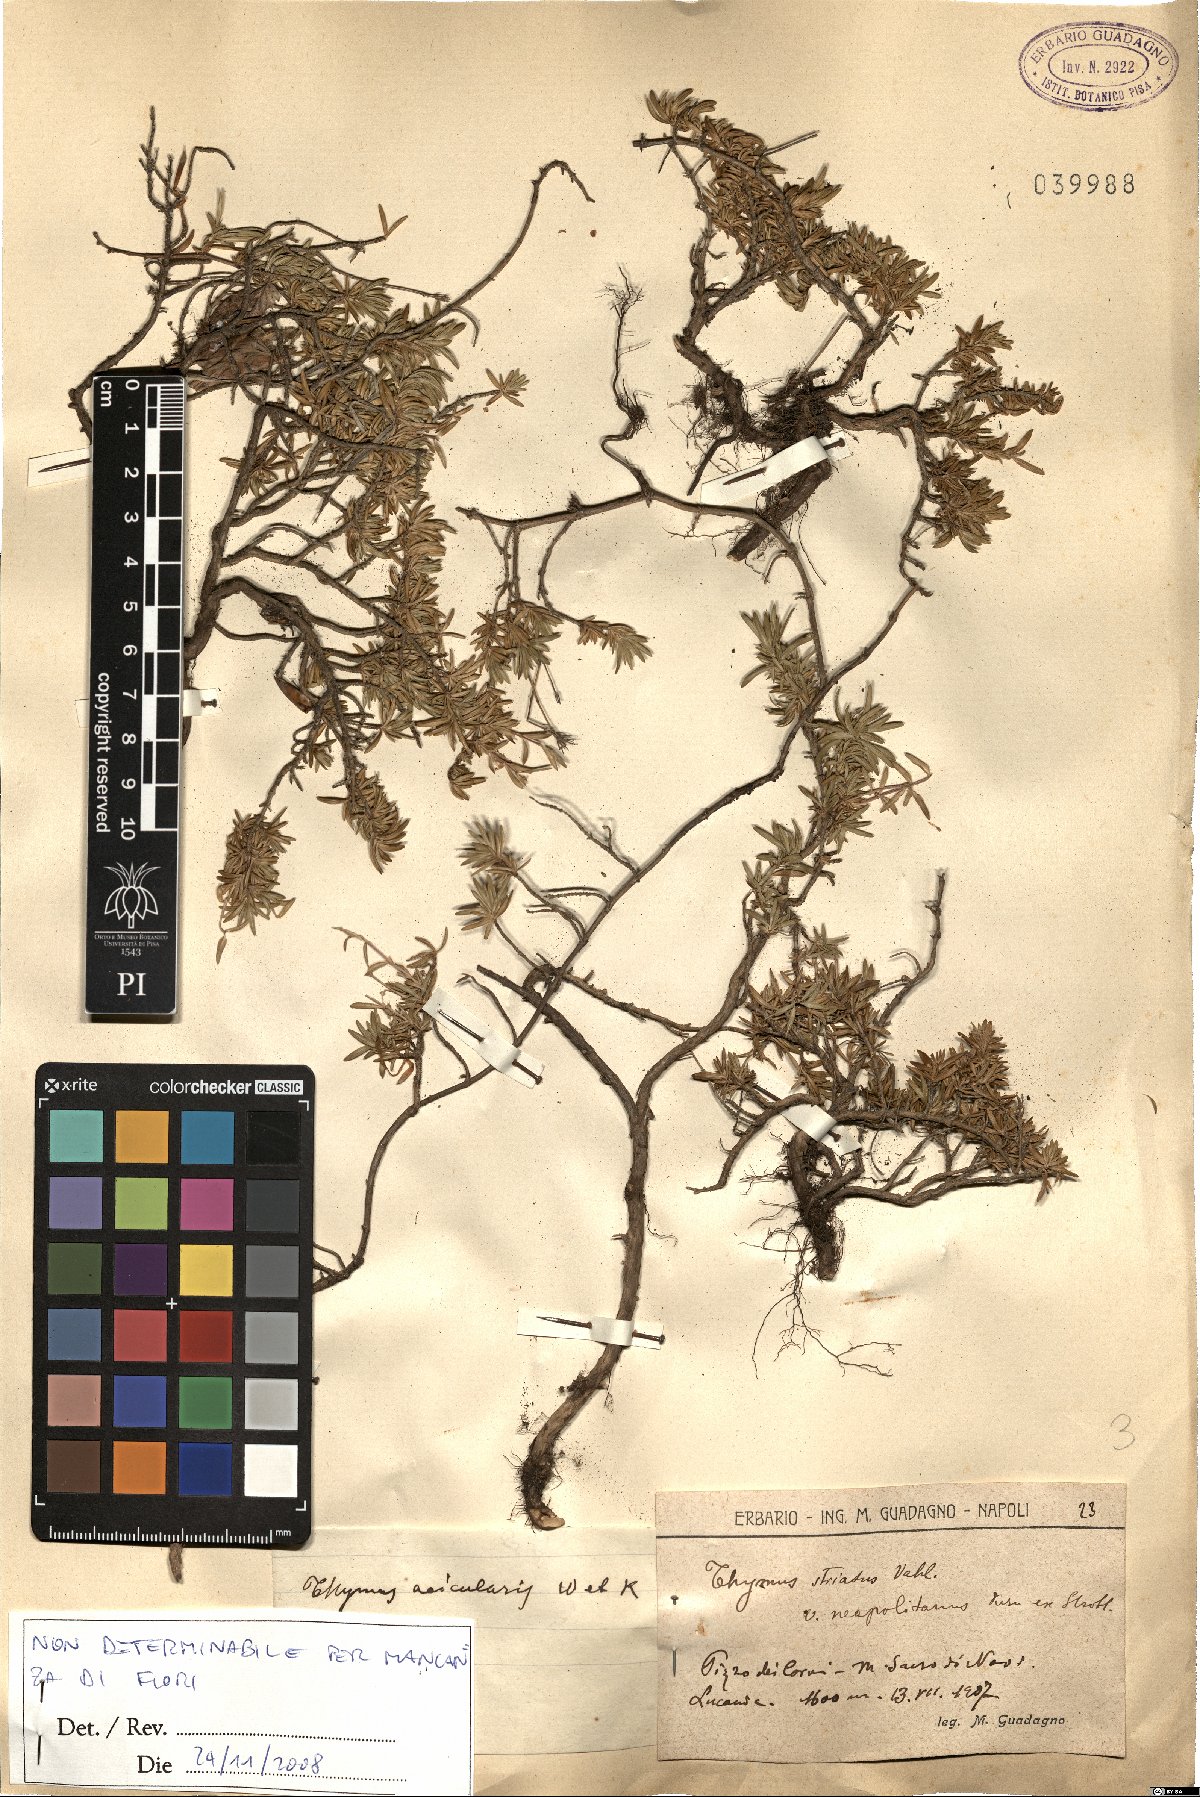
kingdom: Plantae
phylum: Tracheophyta
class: Magnoliopsida
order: Lamiales
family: Lamiaceae
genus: Thymus
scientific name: Thymus
